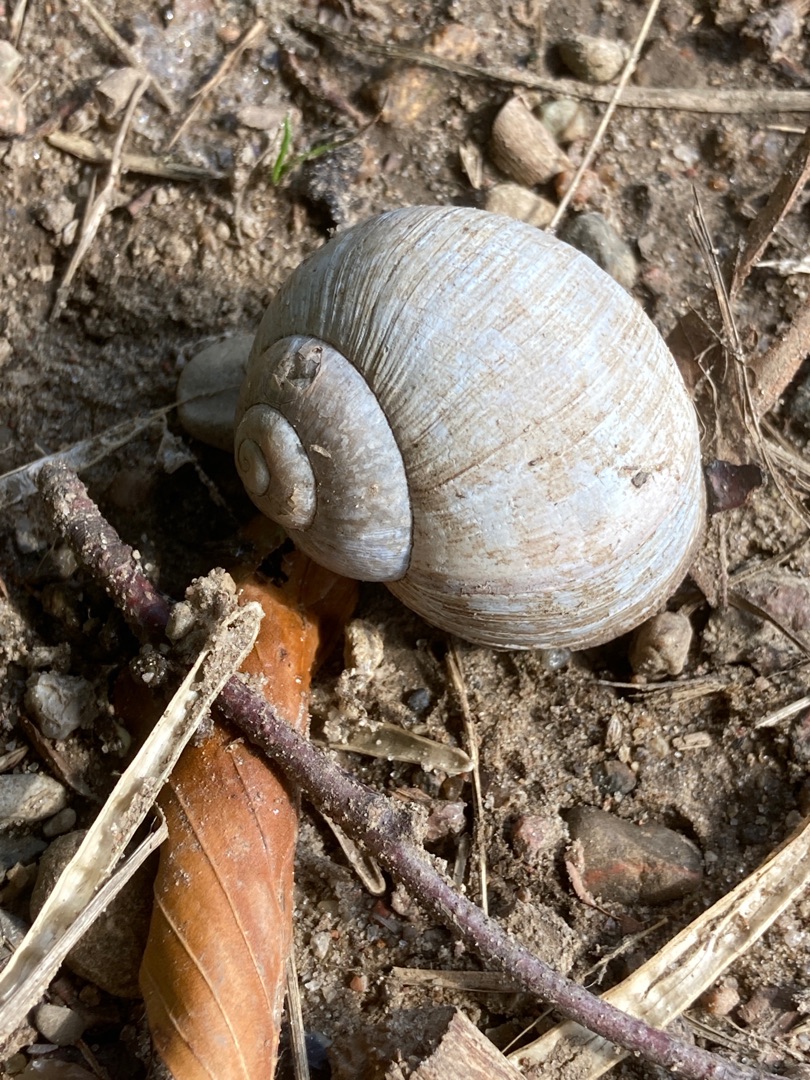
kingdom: Animalia
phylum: Mollusca
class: Gastropoda
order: Stylommatophora
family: Helicidae
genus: Helix
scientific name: Helix pomatia
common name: Vinbjergsnegl
